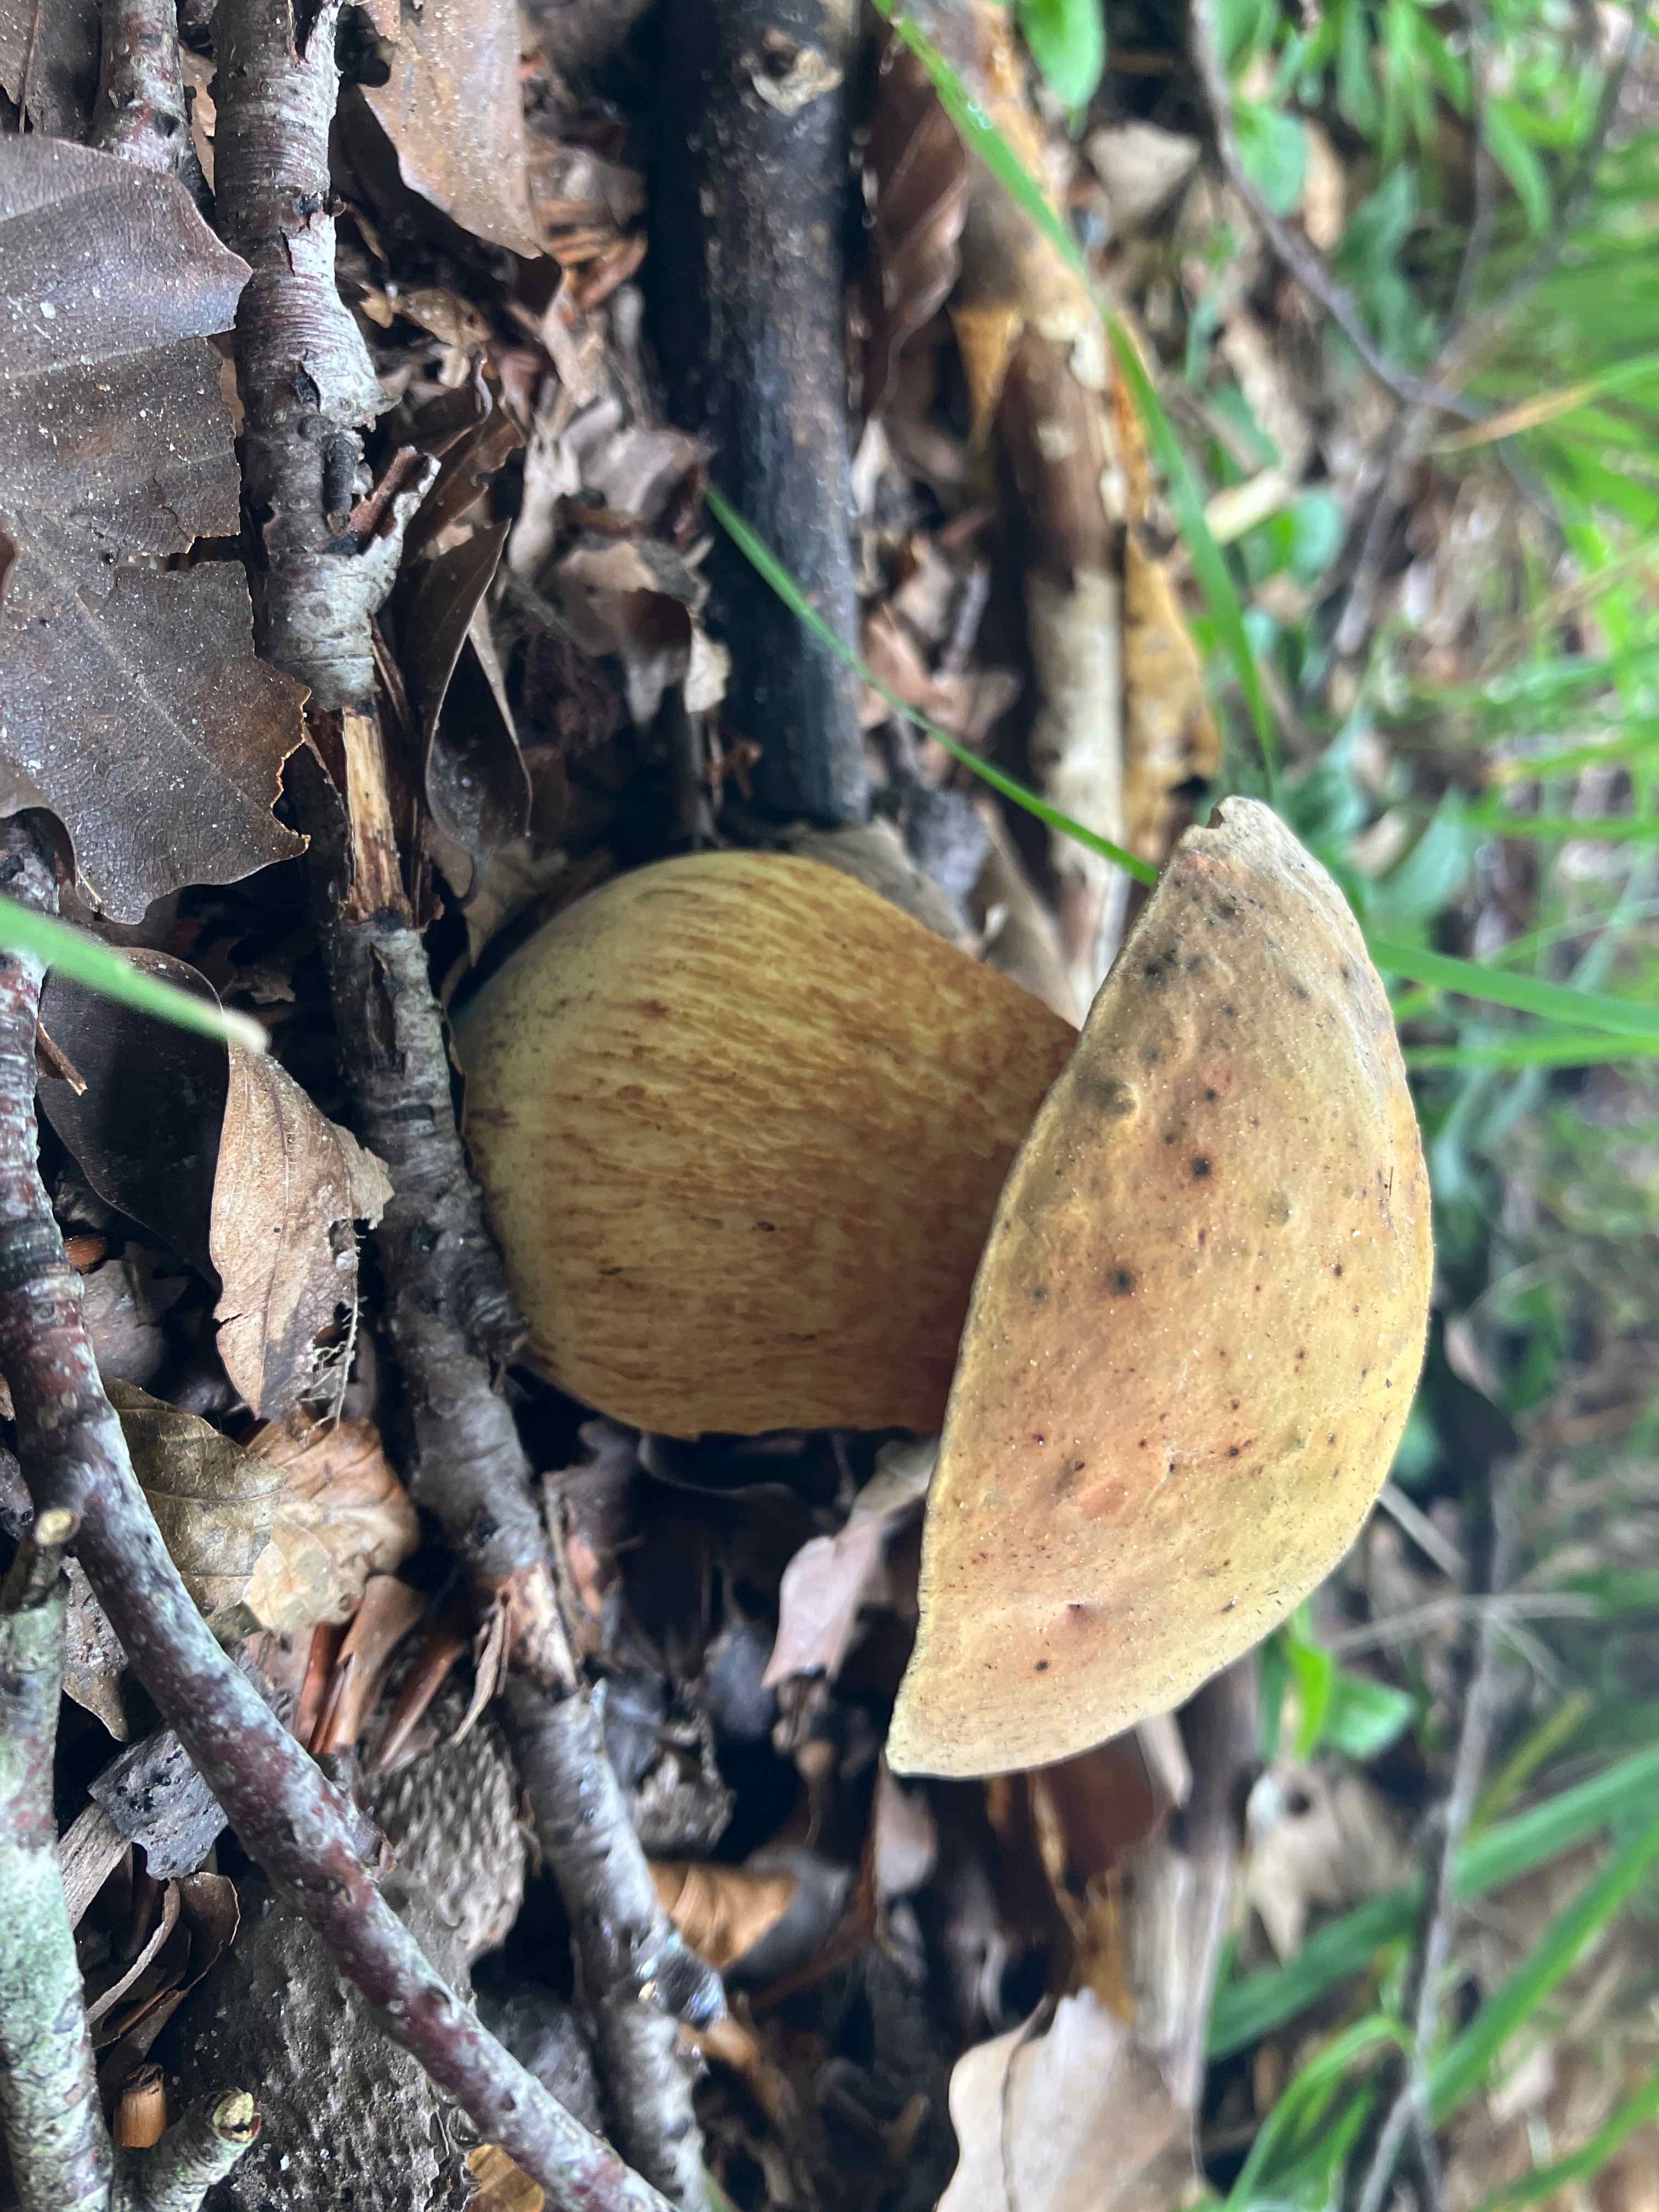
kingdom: Fungi
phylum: Basidiomycota
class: Agaricomycetes
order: Boletales
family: Boletaceae
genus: Suillellus
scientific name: Suillellus luridus
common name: netstokket indigorørhat
